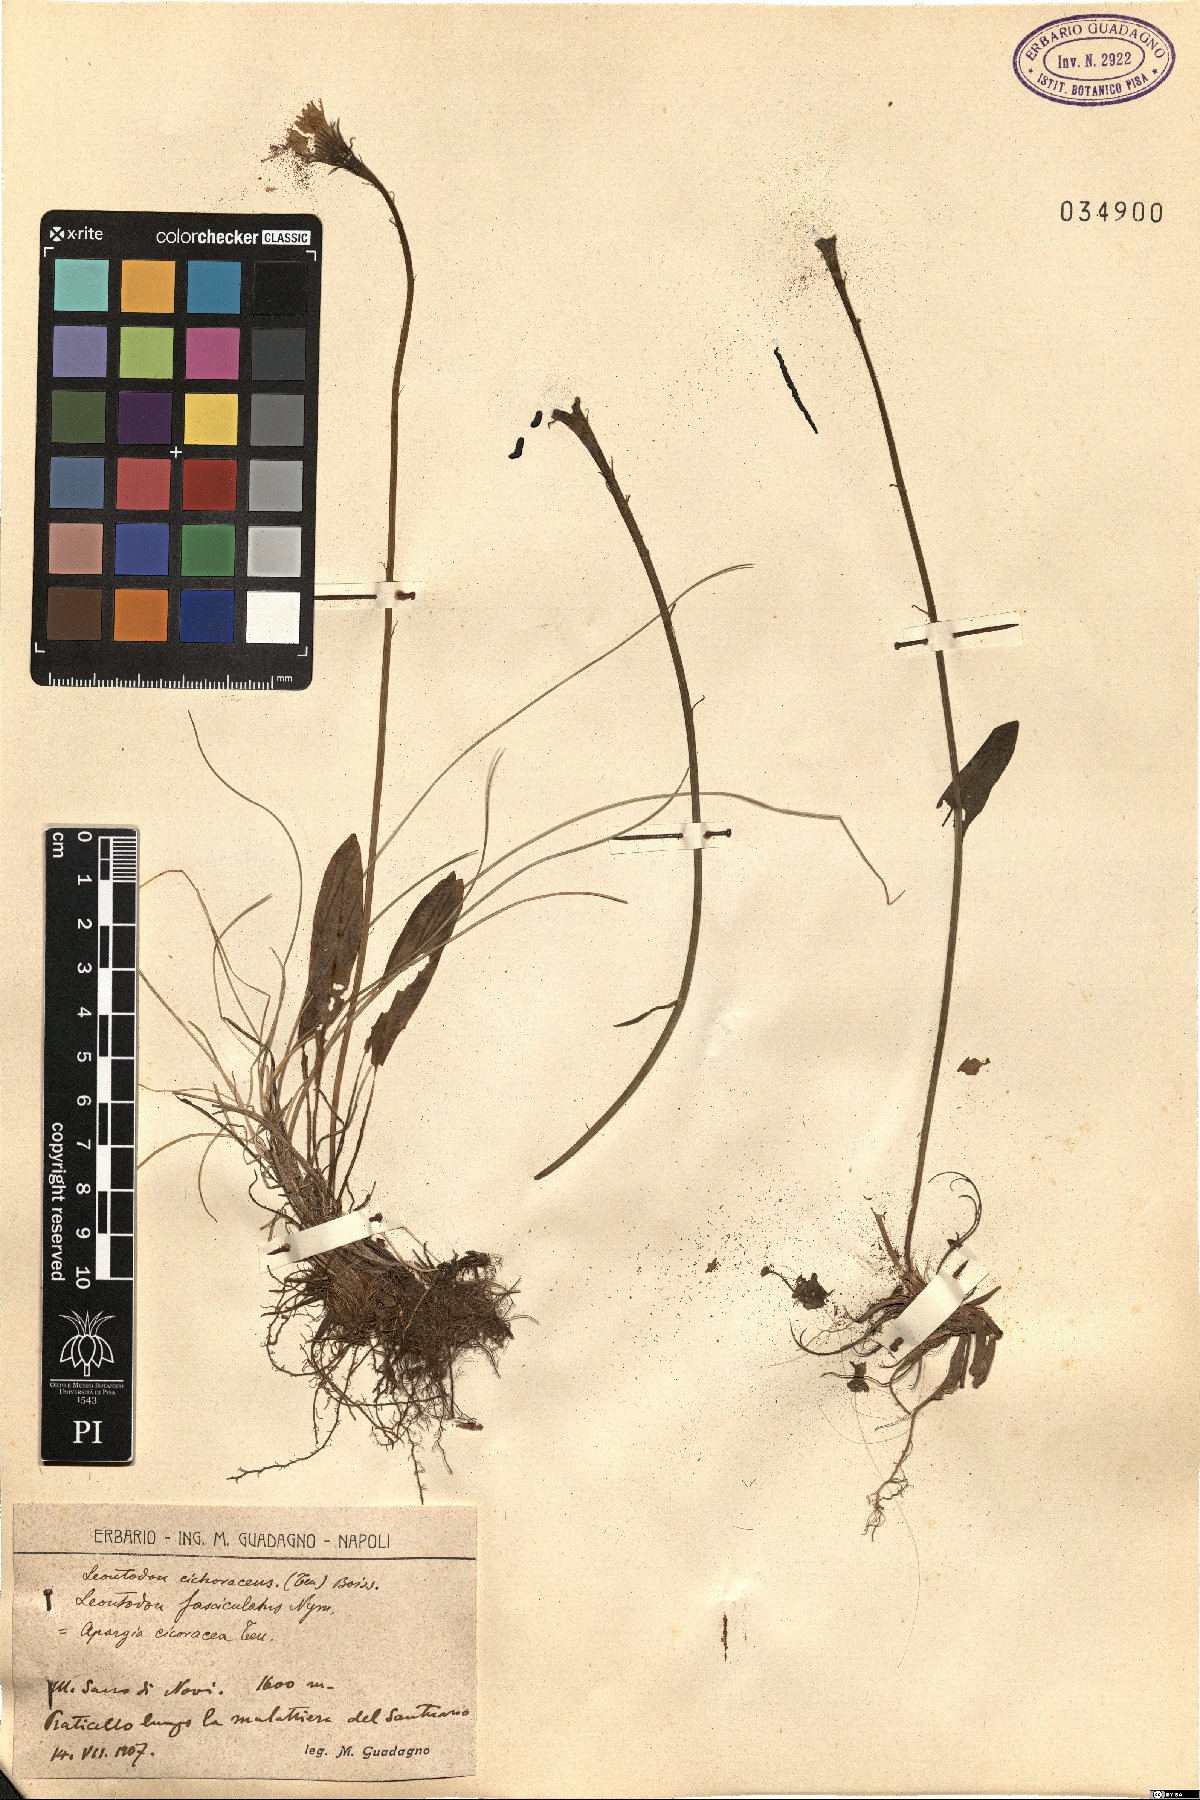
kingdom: Plantae
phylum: Tracheophyta
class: Magnoliopsida
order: Asterales
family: Asteraceae
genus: Scorzoneroides
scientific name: Scorzoneroides cichoriacea
